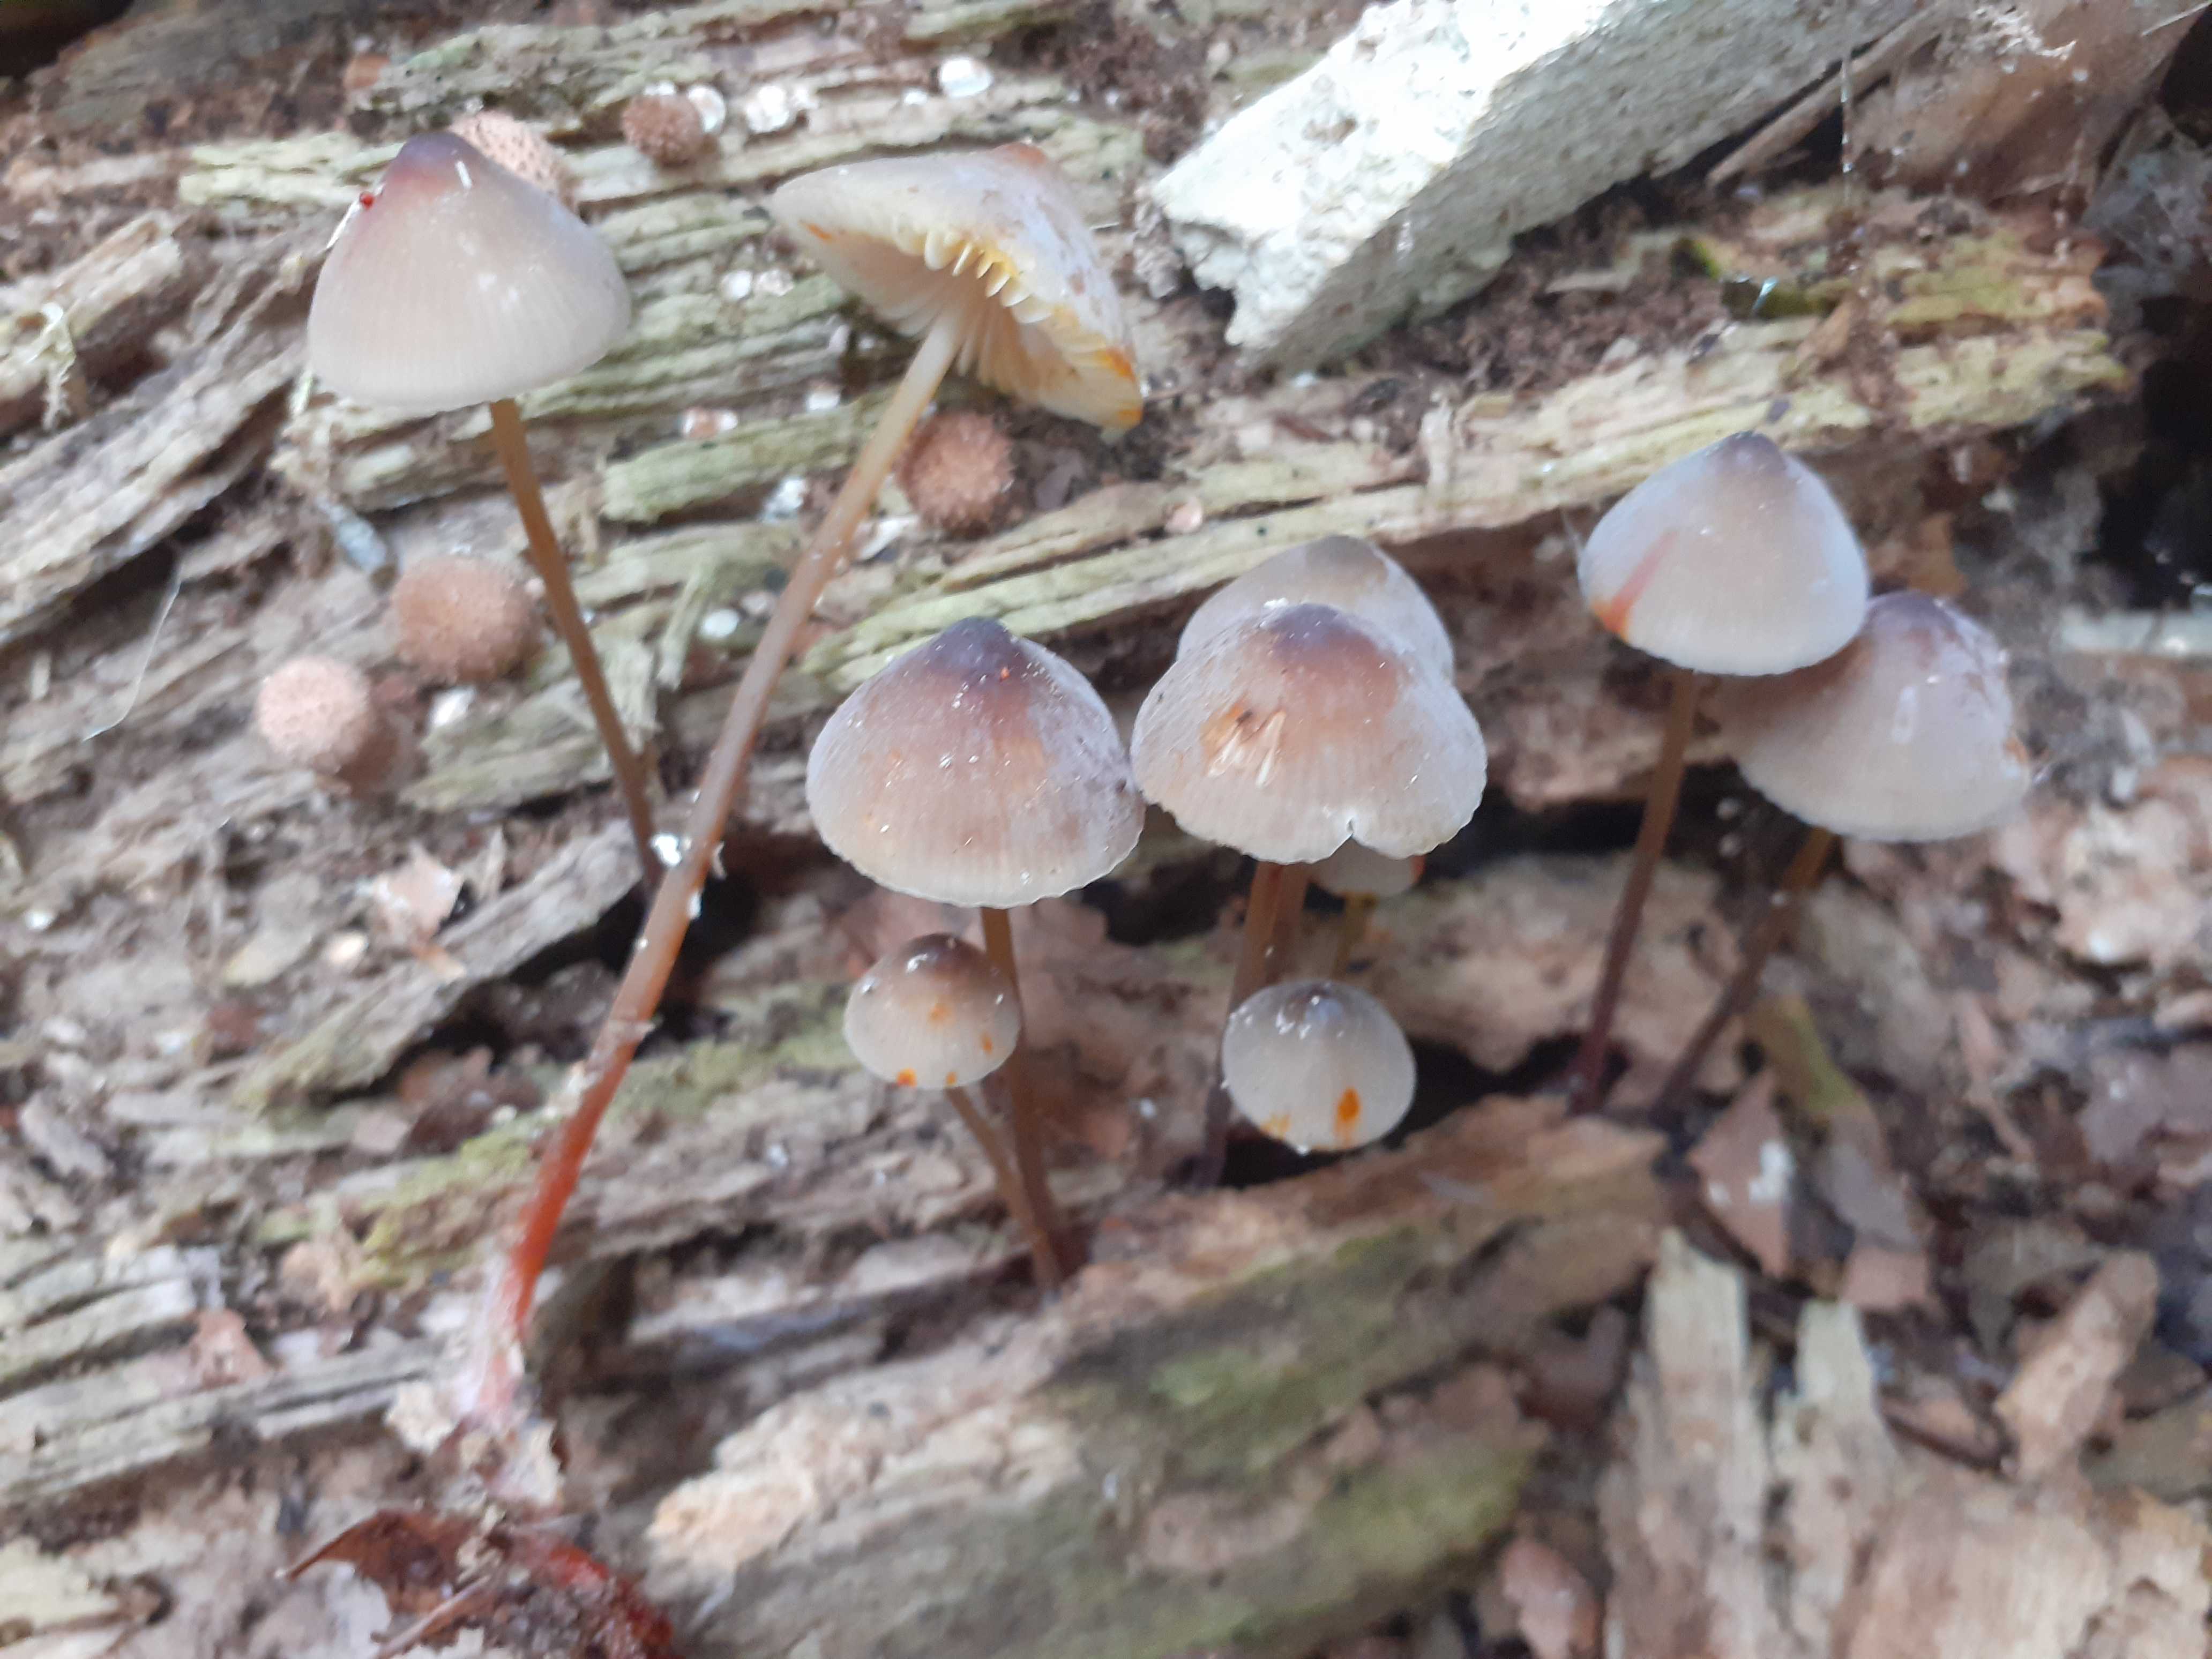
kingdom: Fungi
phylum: Basidiomycota
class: Agaricomycetes
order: Agaricales
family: Mycenaceae
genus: Mycena
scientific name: Mycena crocata
